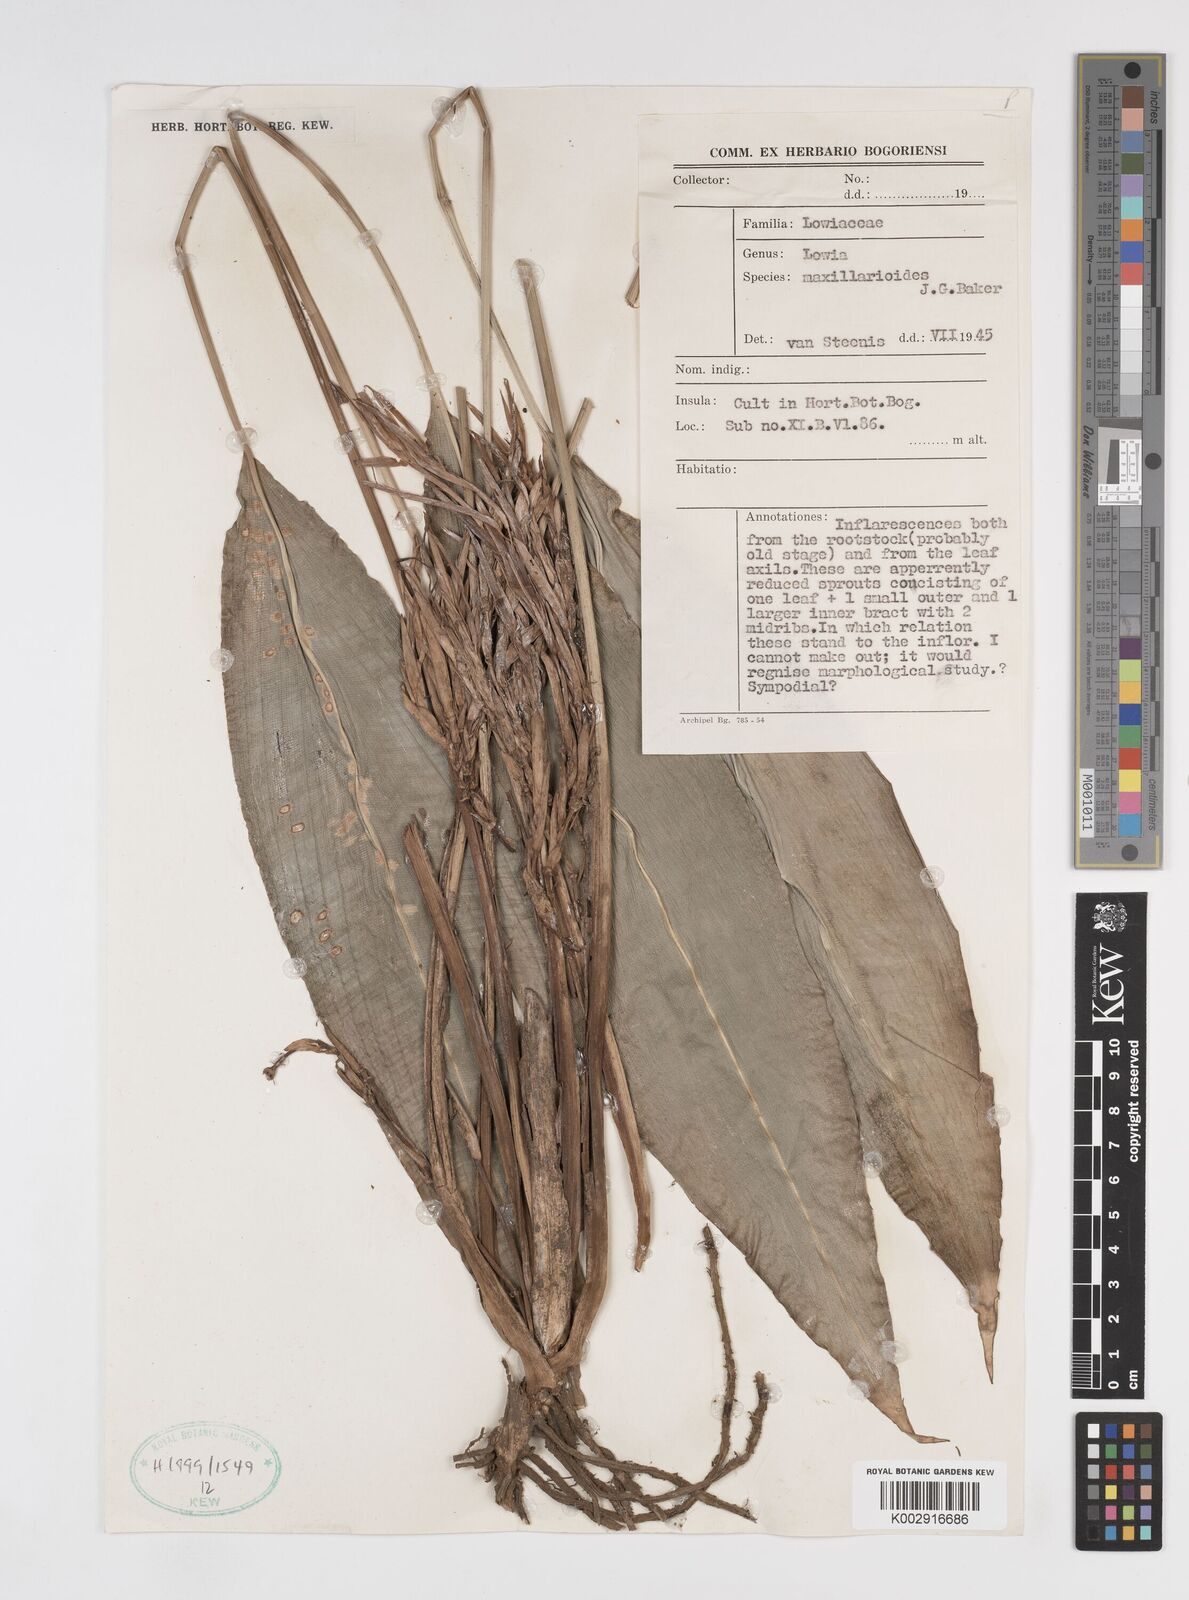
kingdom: Plantae
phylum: Tracheophyta
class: Liliopsida
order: Zingiberales
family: Lowiaceae
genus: Orchidantha
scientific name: Orchidantha maxillarioides
